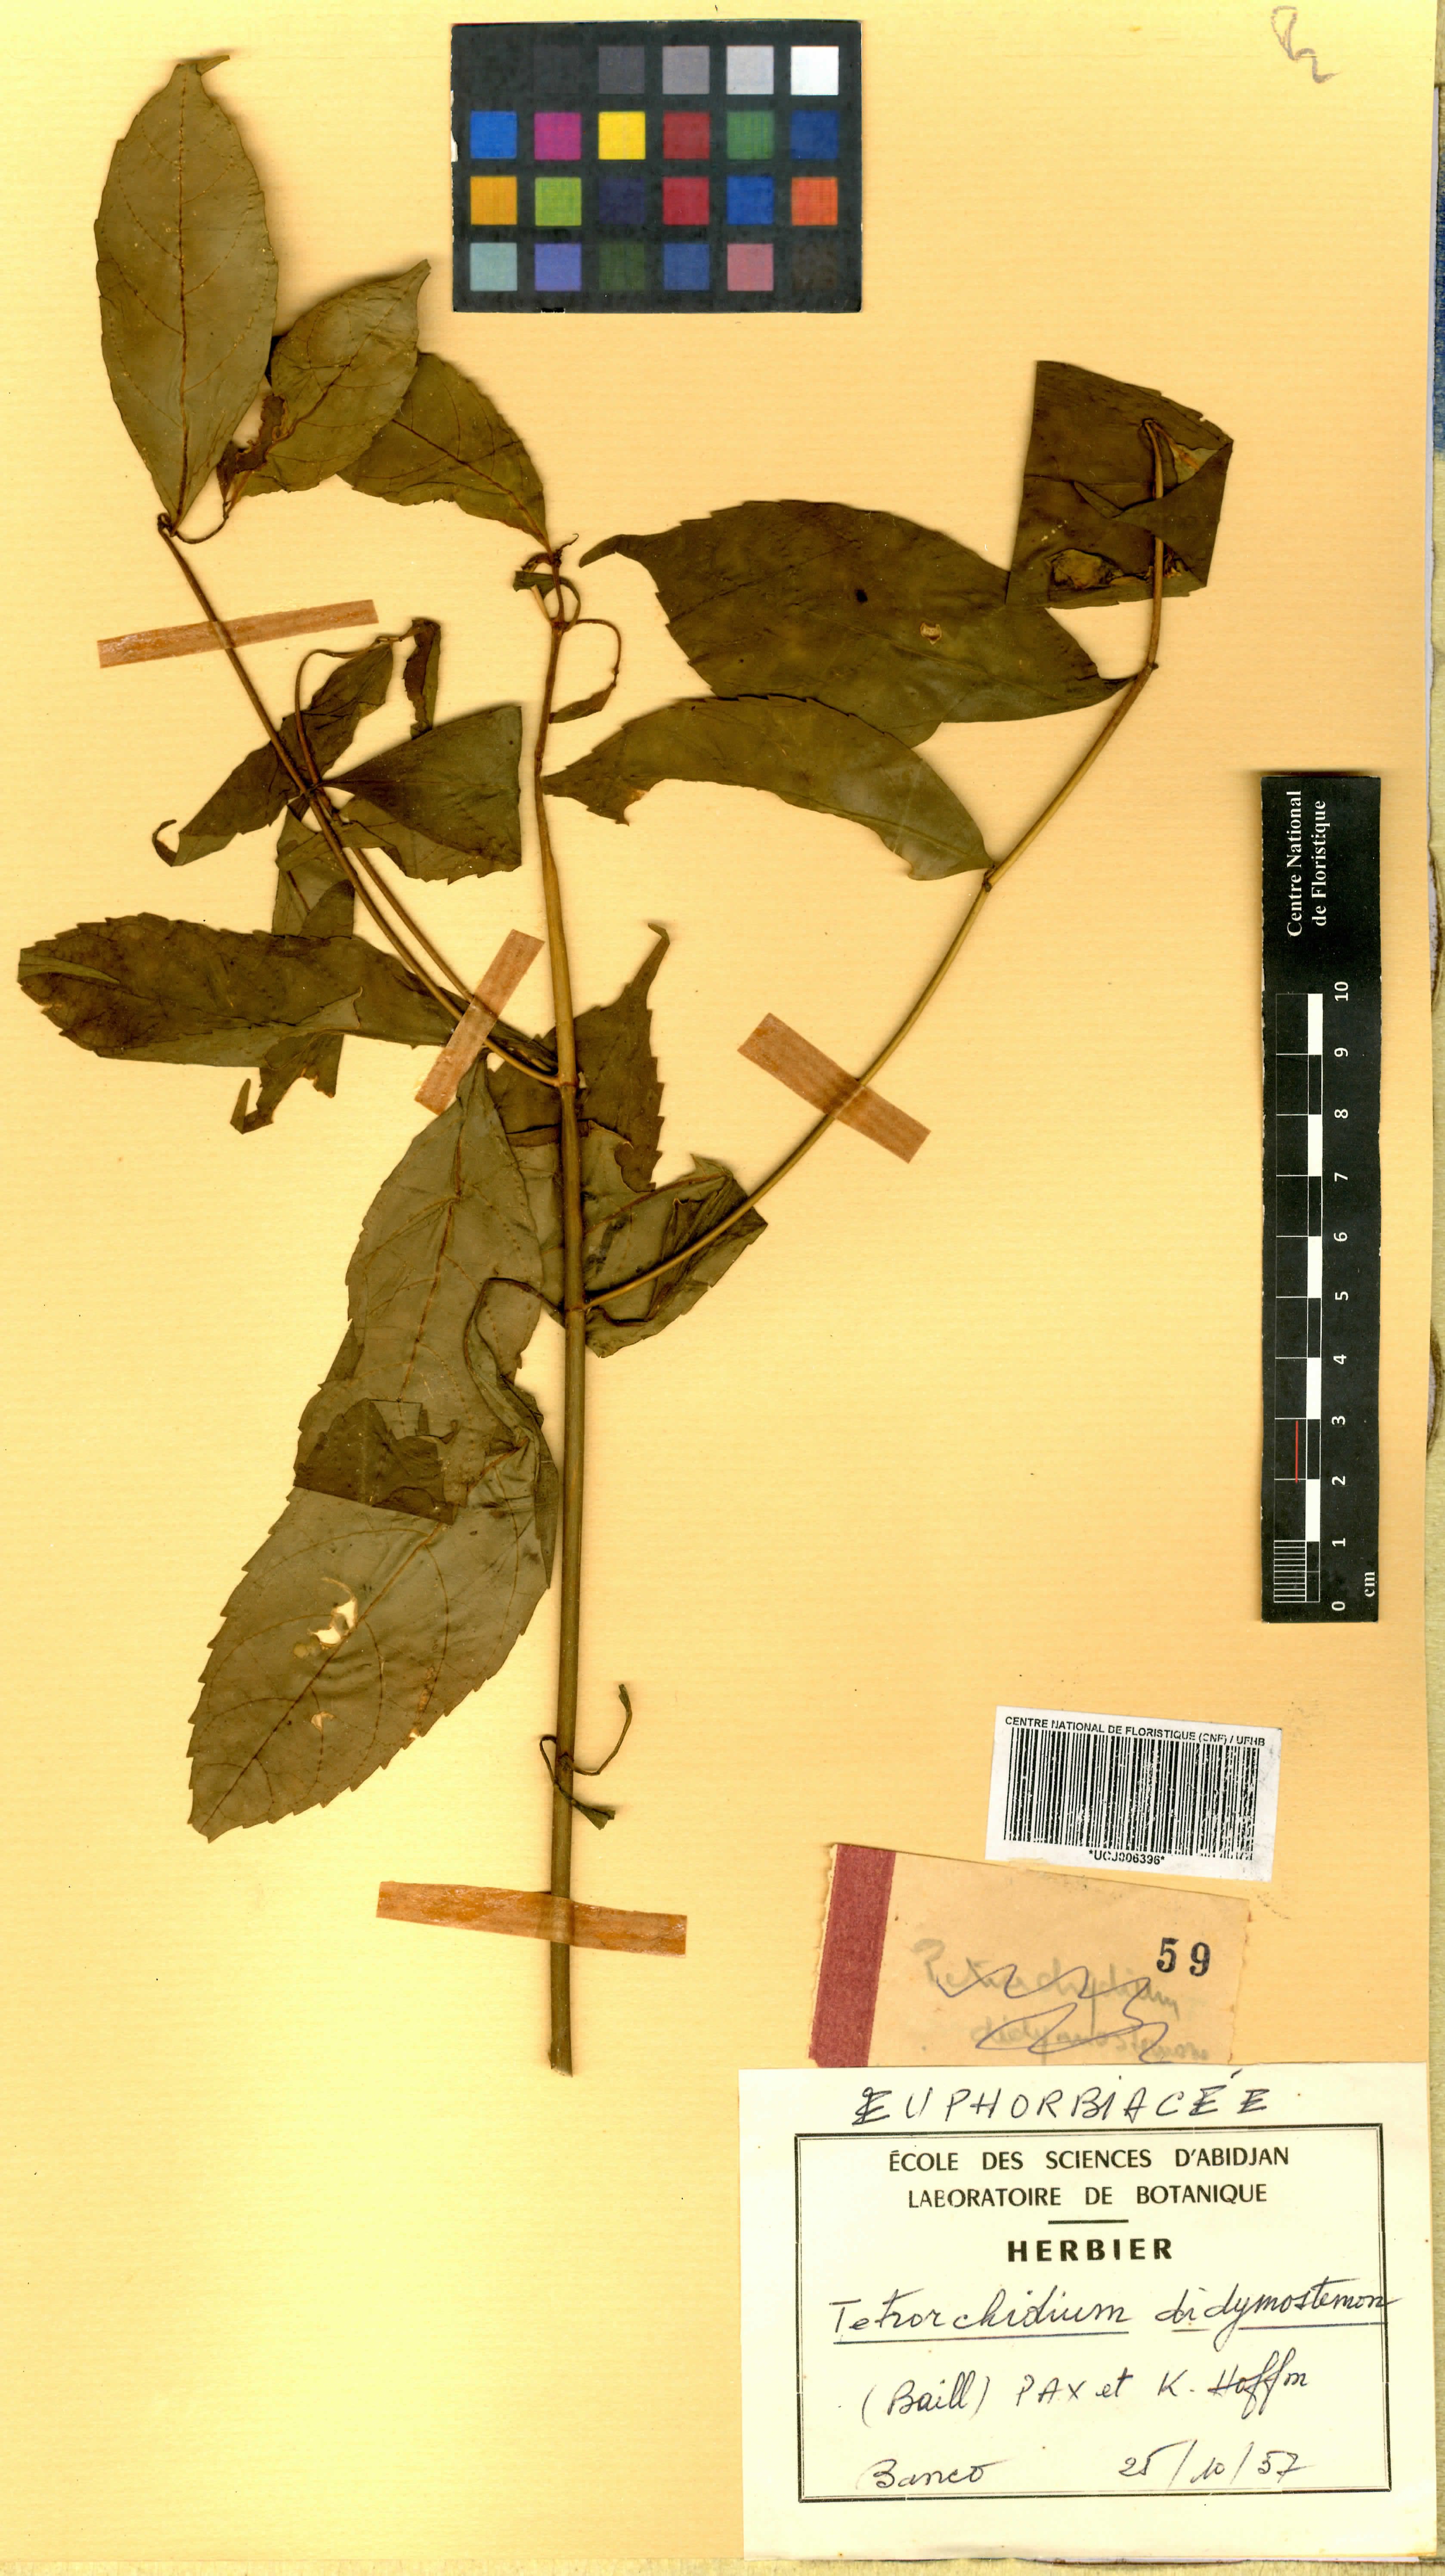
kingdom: Plantae
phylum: Tracheophyta
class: Magnoliopsida
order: Malpighiales
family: Euphorbiaceae
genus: Tetrorchidium
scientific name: Tetrorchidium didymostemon
